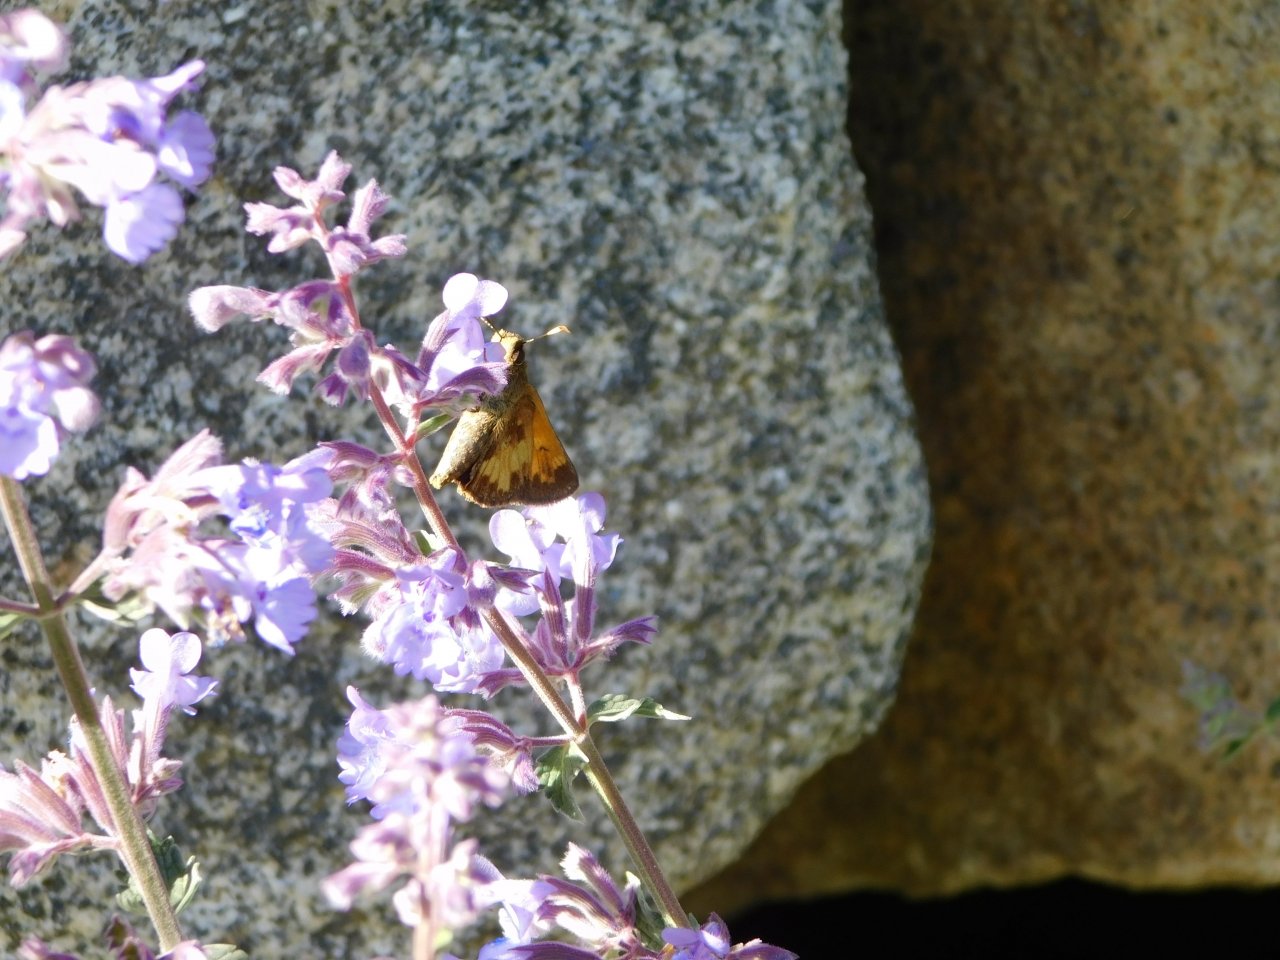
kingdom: Animalia
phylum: Arthropoda
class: Insecta
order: Lepidoptera
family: Hesperiidae
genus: Lon
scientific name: Lon hobomok
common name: Hobomok Skipper
